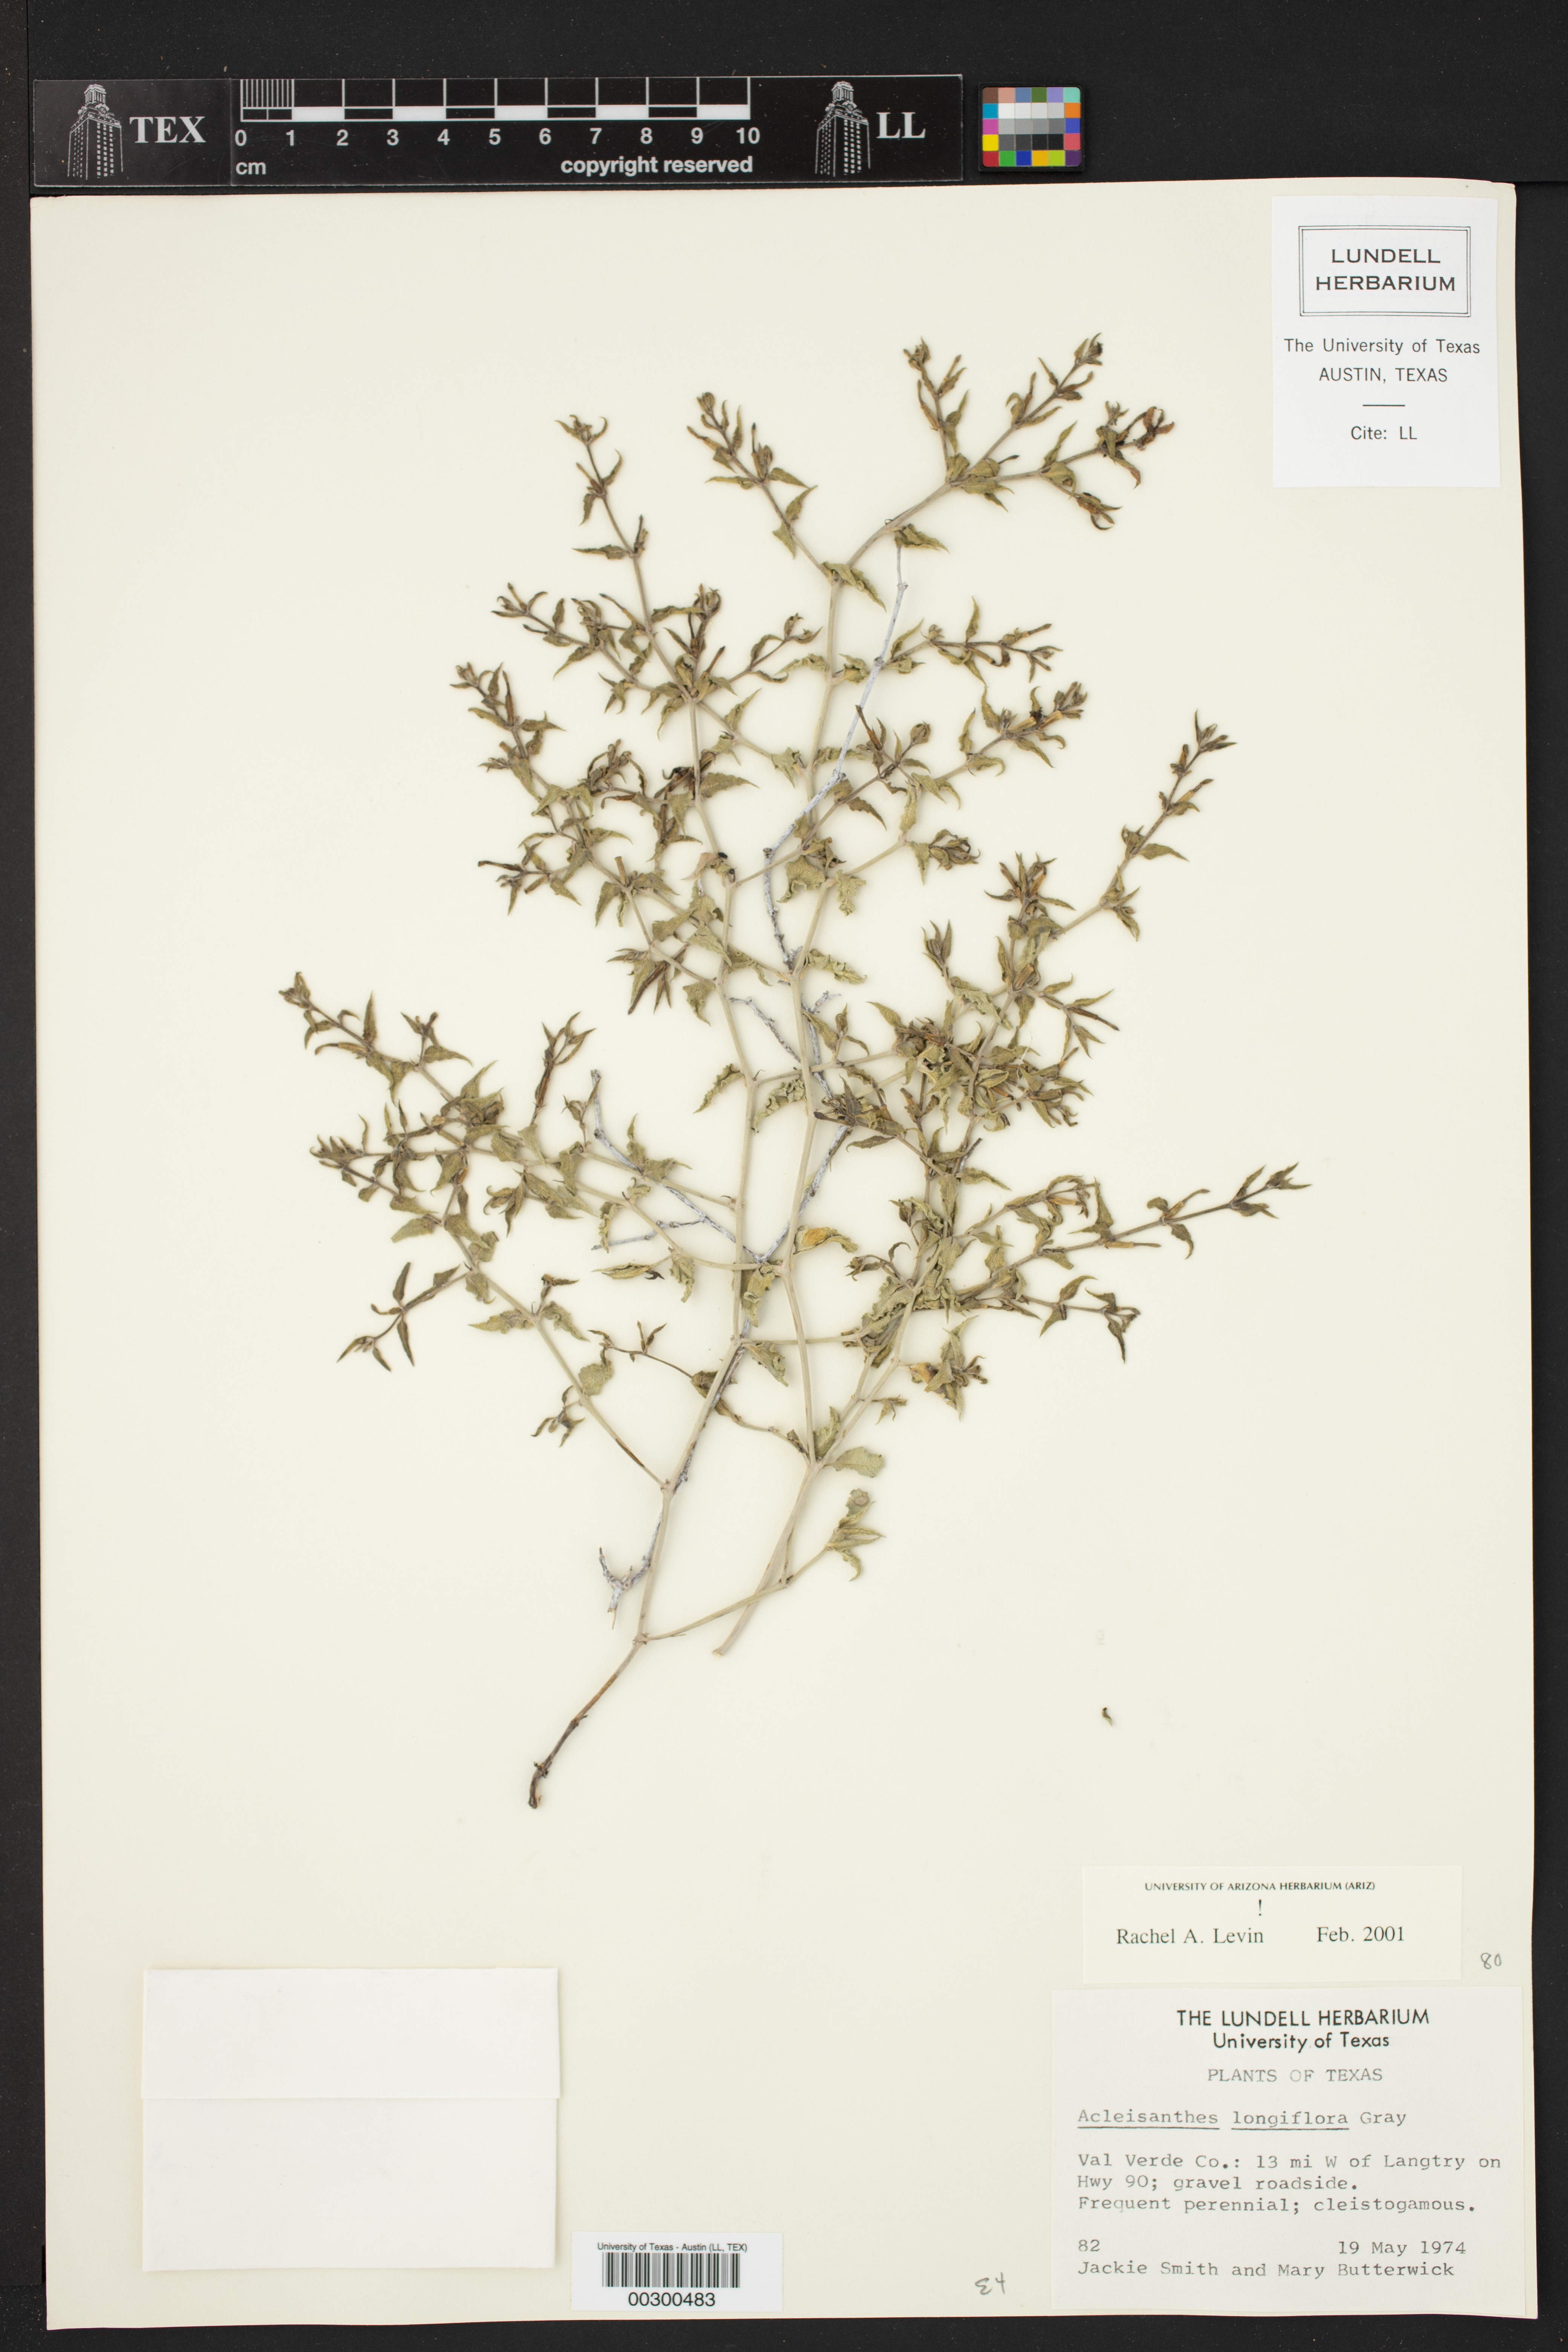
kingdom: Plantae
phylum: Tracheophyta
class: Magnoliopsida
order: Caryophyllales
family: Nyctaginaceae
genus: Acleisanthes
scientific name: Acleisanthes longiflora
